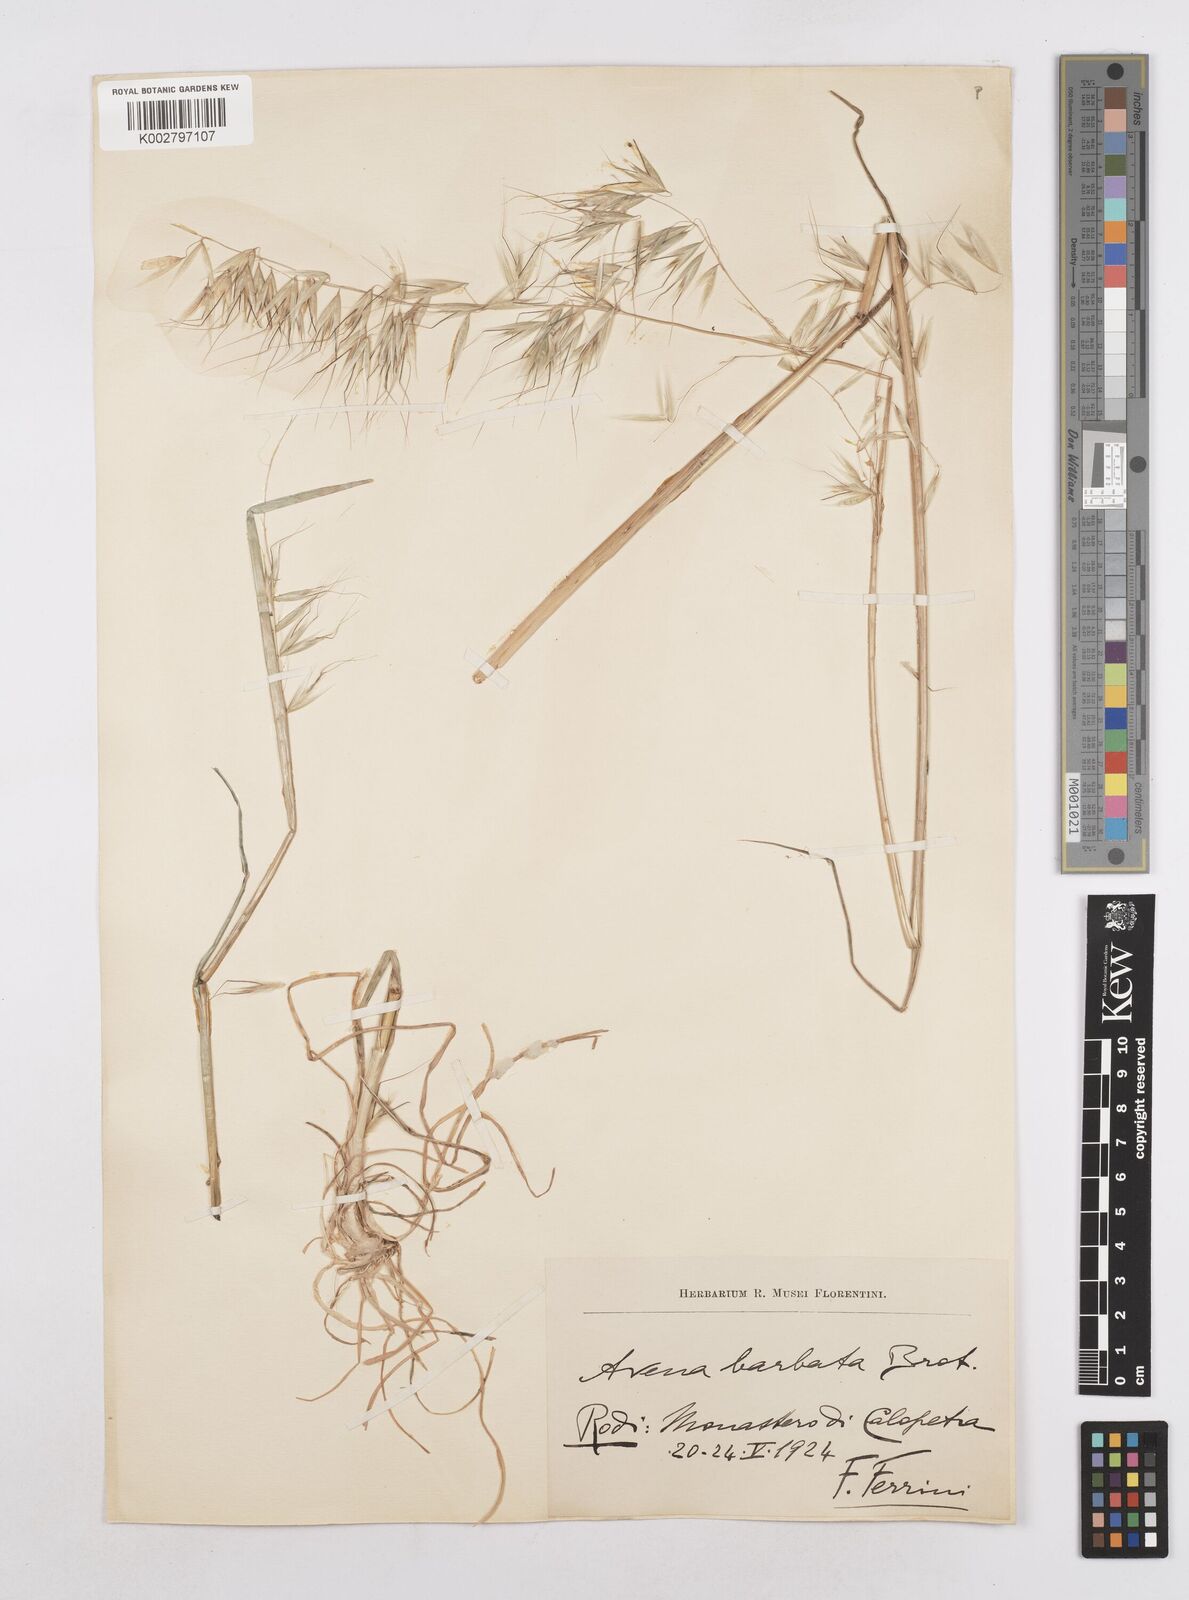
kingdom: Plantae
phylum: Tracheophyta
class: Liliopsida
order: Poales
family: Poaceae
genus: Avena
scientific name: Avena
